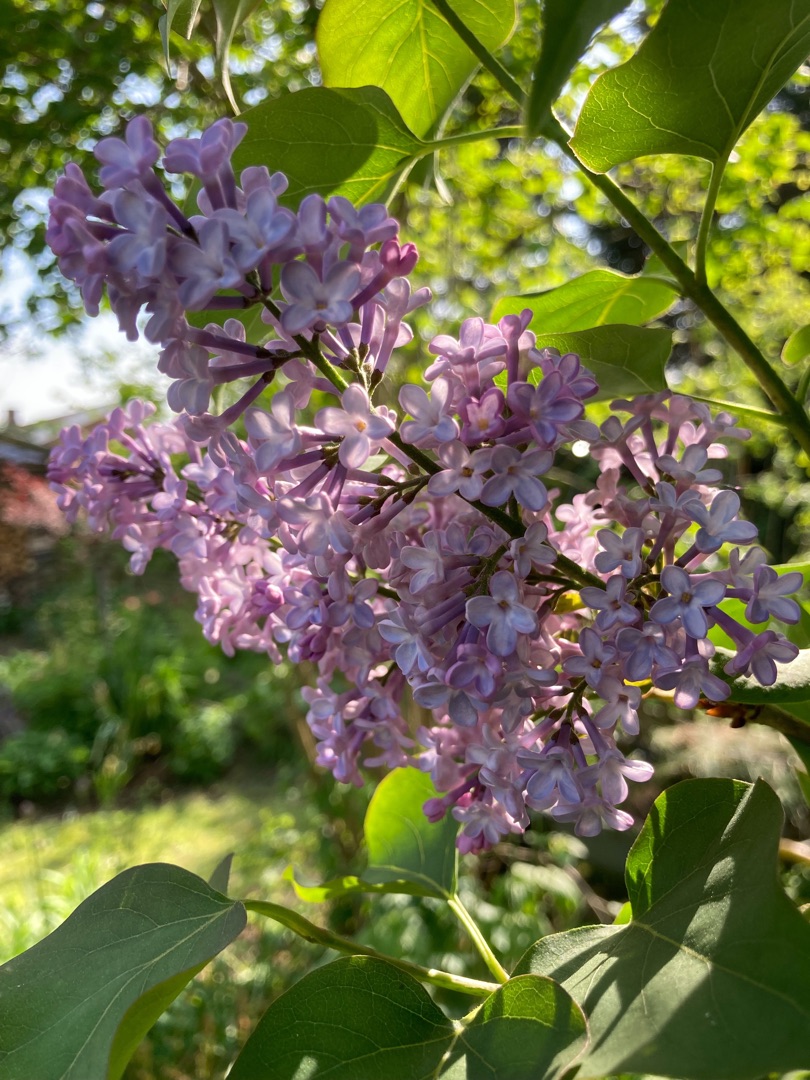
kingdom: Plantae
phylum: Tracheophyta
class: Magnoliopsida
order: Lamiales
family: Oleaceae
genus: Syringa
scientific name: Syringa vulgaris
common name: Syren
